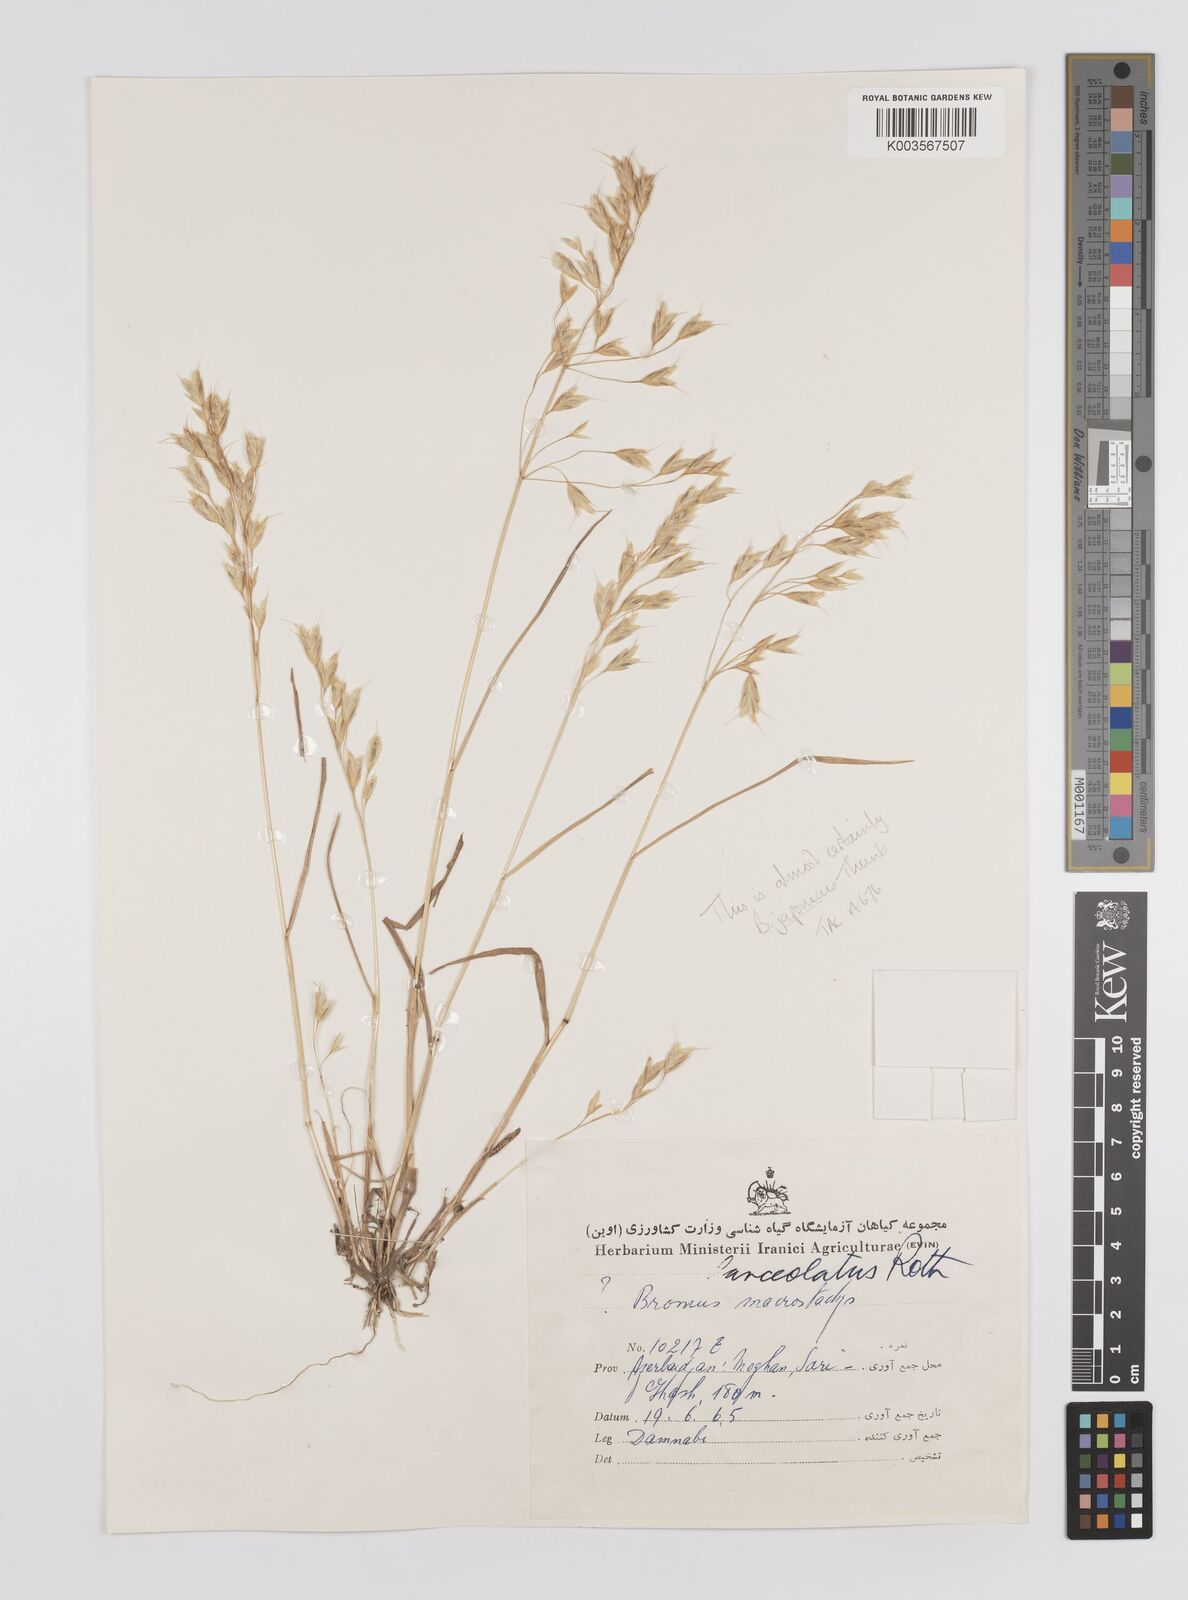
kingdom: Plantae
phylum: Tracheophyta
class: Liliopsida
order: Poales
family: Poaceae
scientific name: Poaceae
